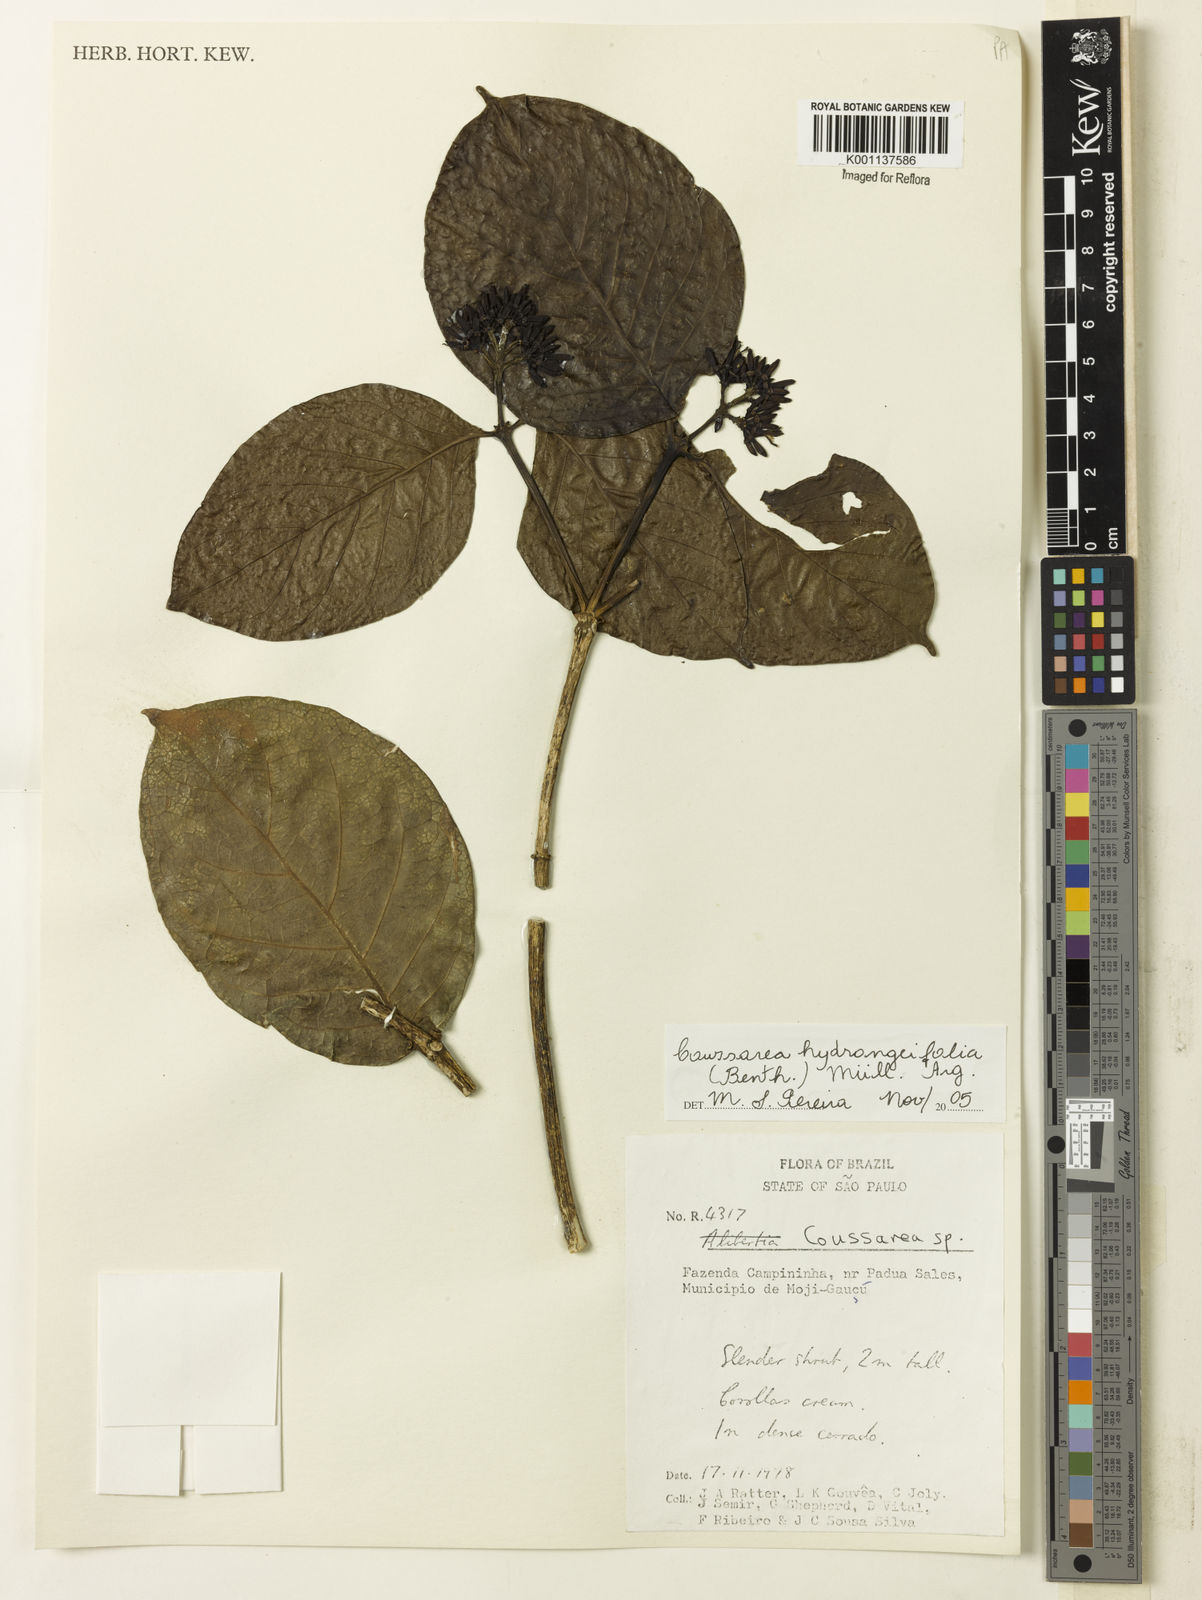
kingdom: Plantae
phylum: Tracheophyta
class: Magnoliopsida
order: Gentianales
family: Rubiaceae
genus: Coussarea
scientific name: Coussarea
